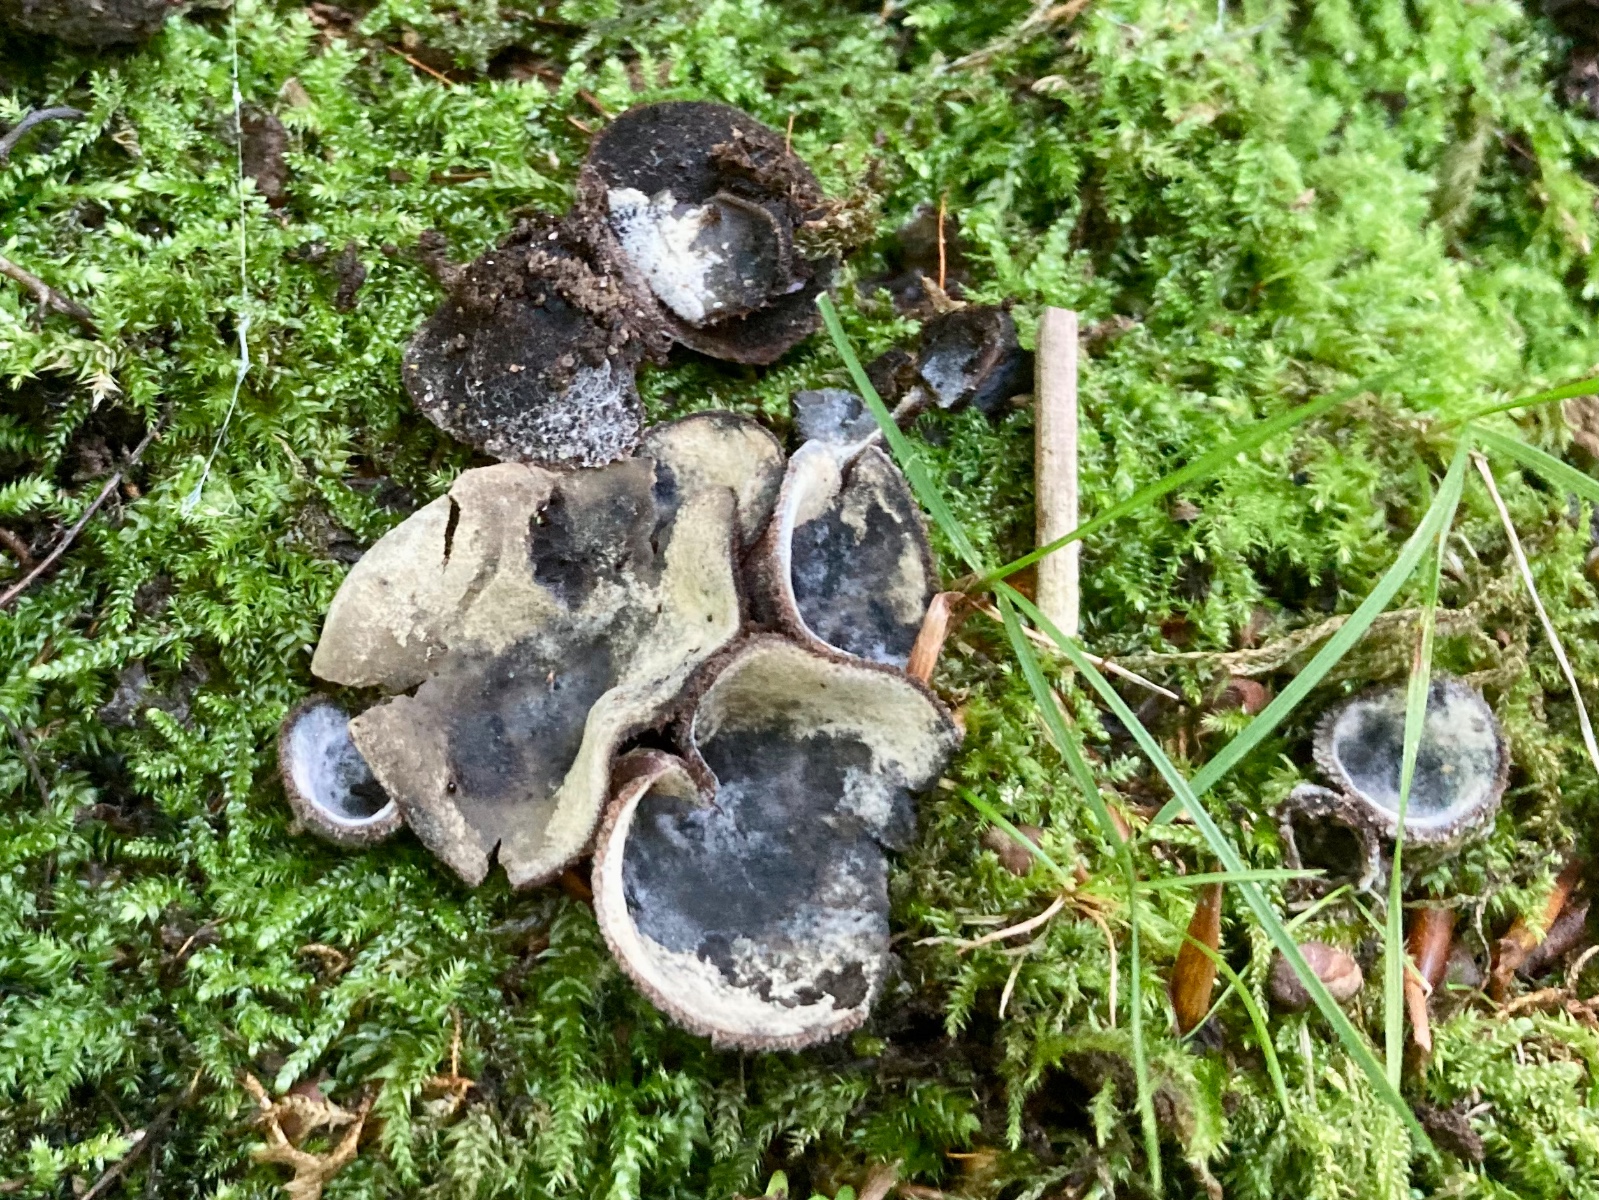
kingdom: Fungi
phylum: Ascomycota
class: Sordariomycetes
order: Hypocreales
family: Hypocreaceae
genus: Hypomyces
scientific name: Hypomyces stephanomatis
